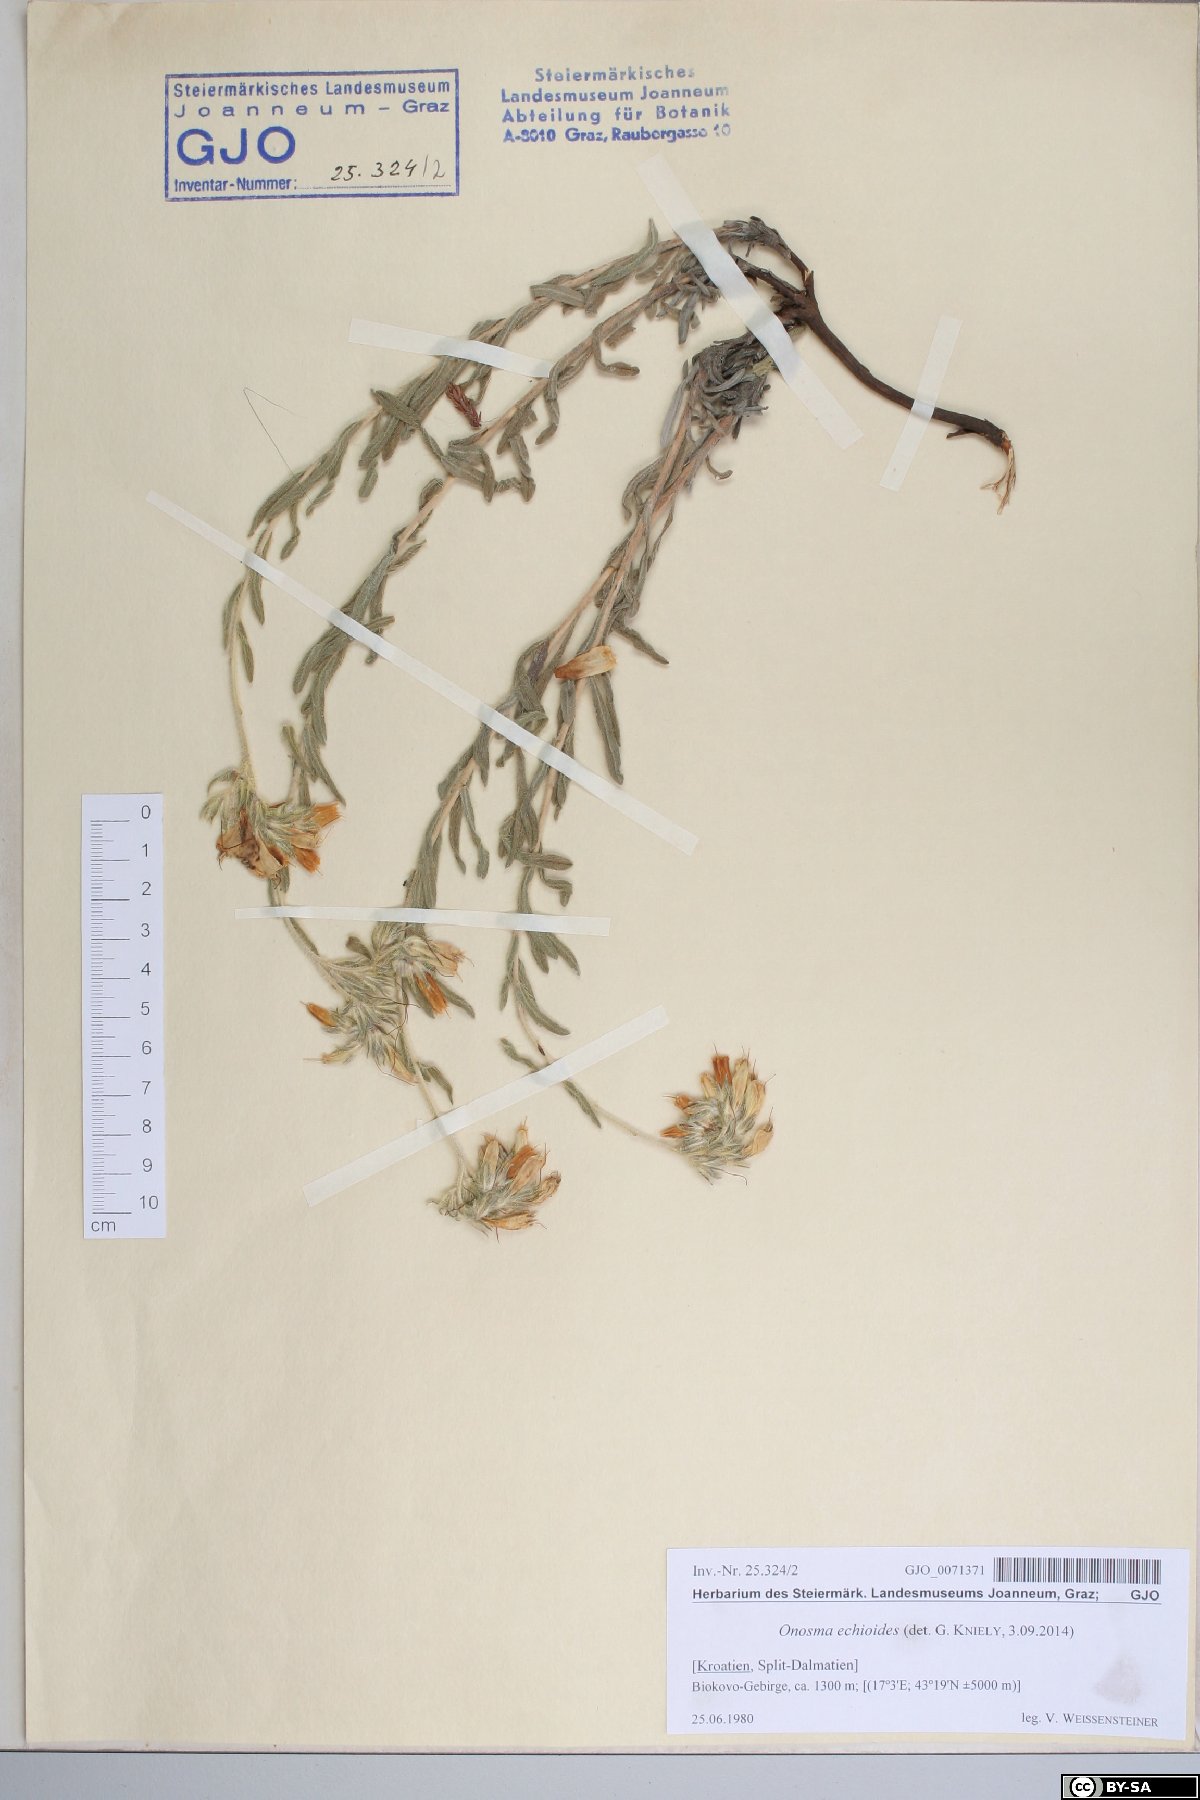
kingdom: Plantae
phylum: Tracheophyta
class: Magnoliopsida
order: Boraginales
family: Boraginaceae
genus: Onosma
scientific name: Onosma echioides
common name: Goldendrop
